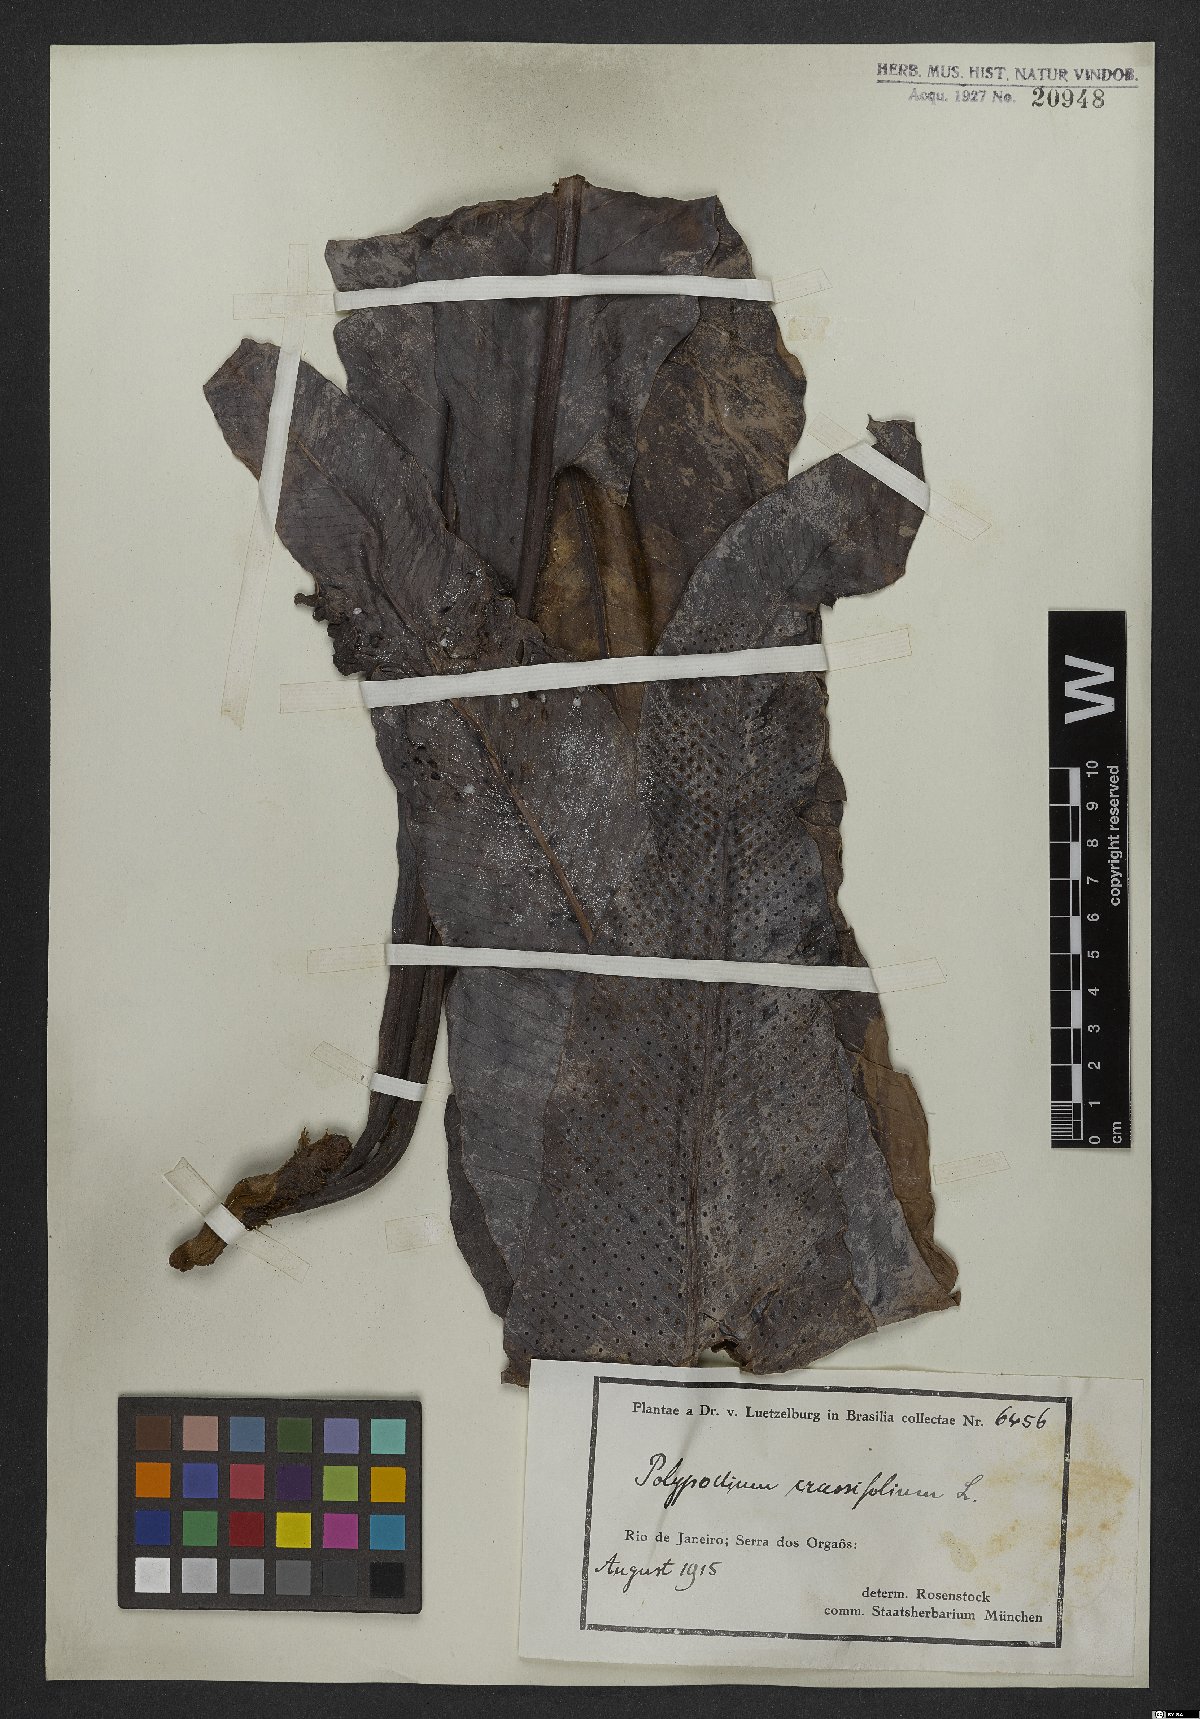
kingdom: Plantae
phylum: Tracheophyta
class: Polypodiopsida
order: Polypodiales
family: Polypodiaceae
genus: Niphidium
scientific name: Niphidium crassifolium
